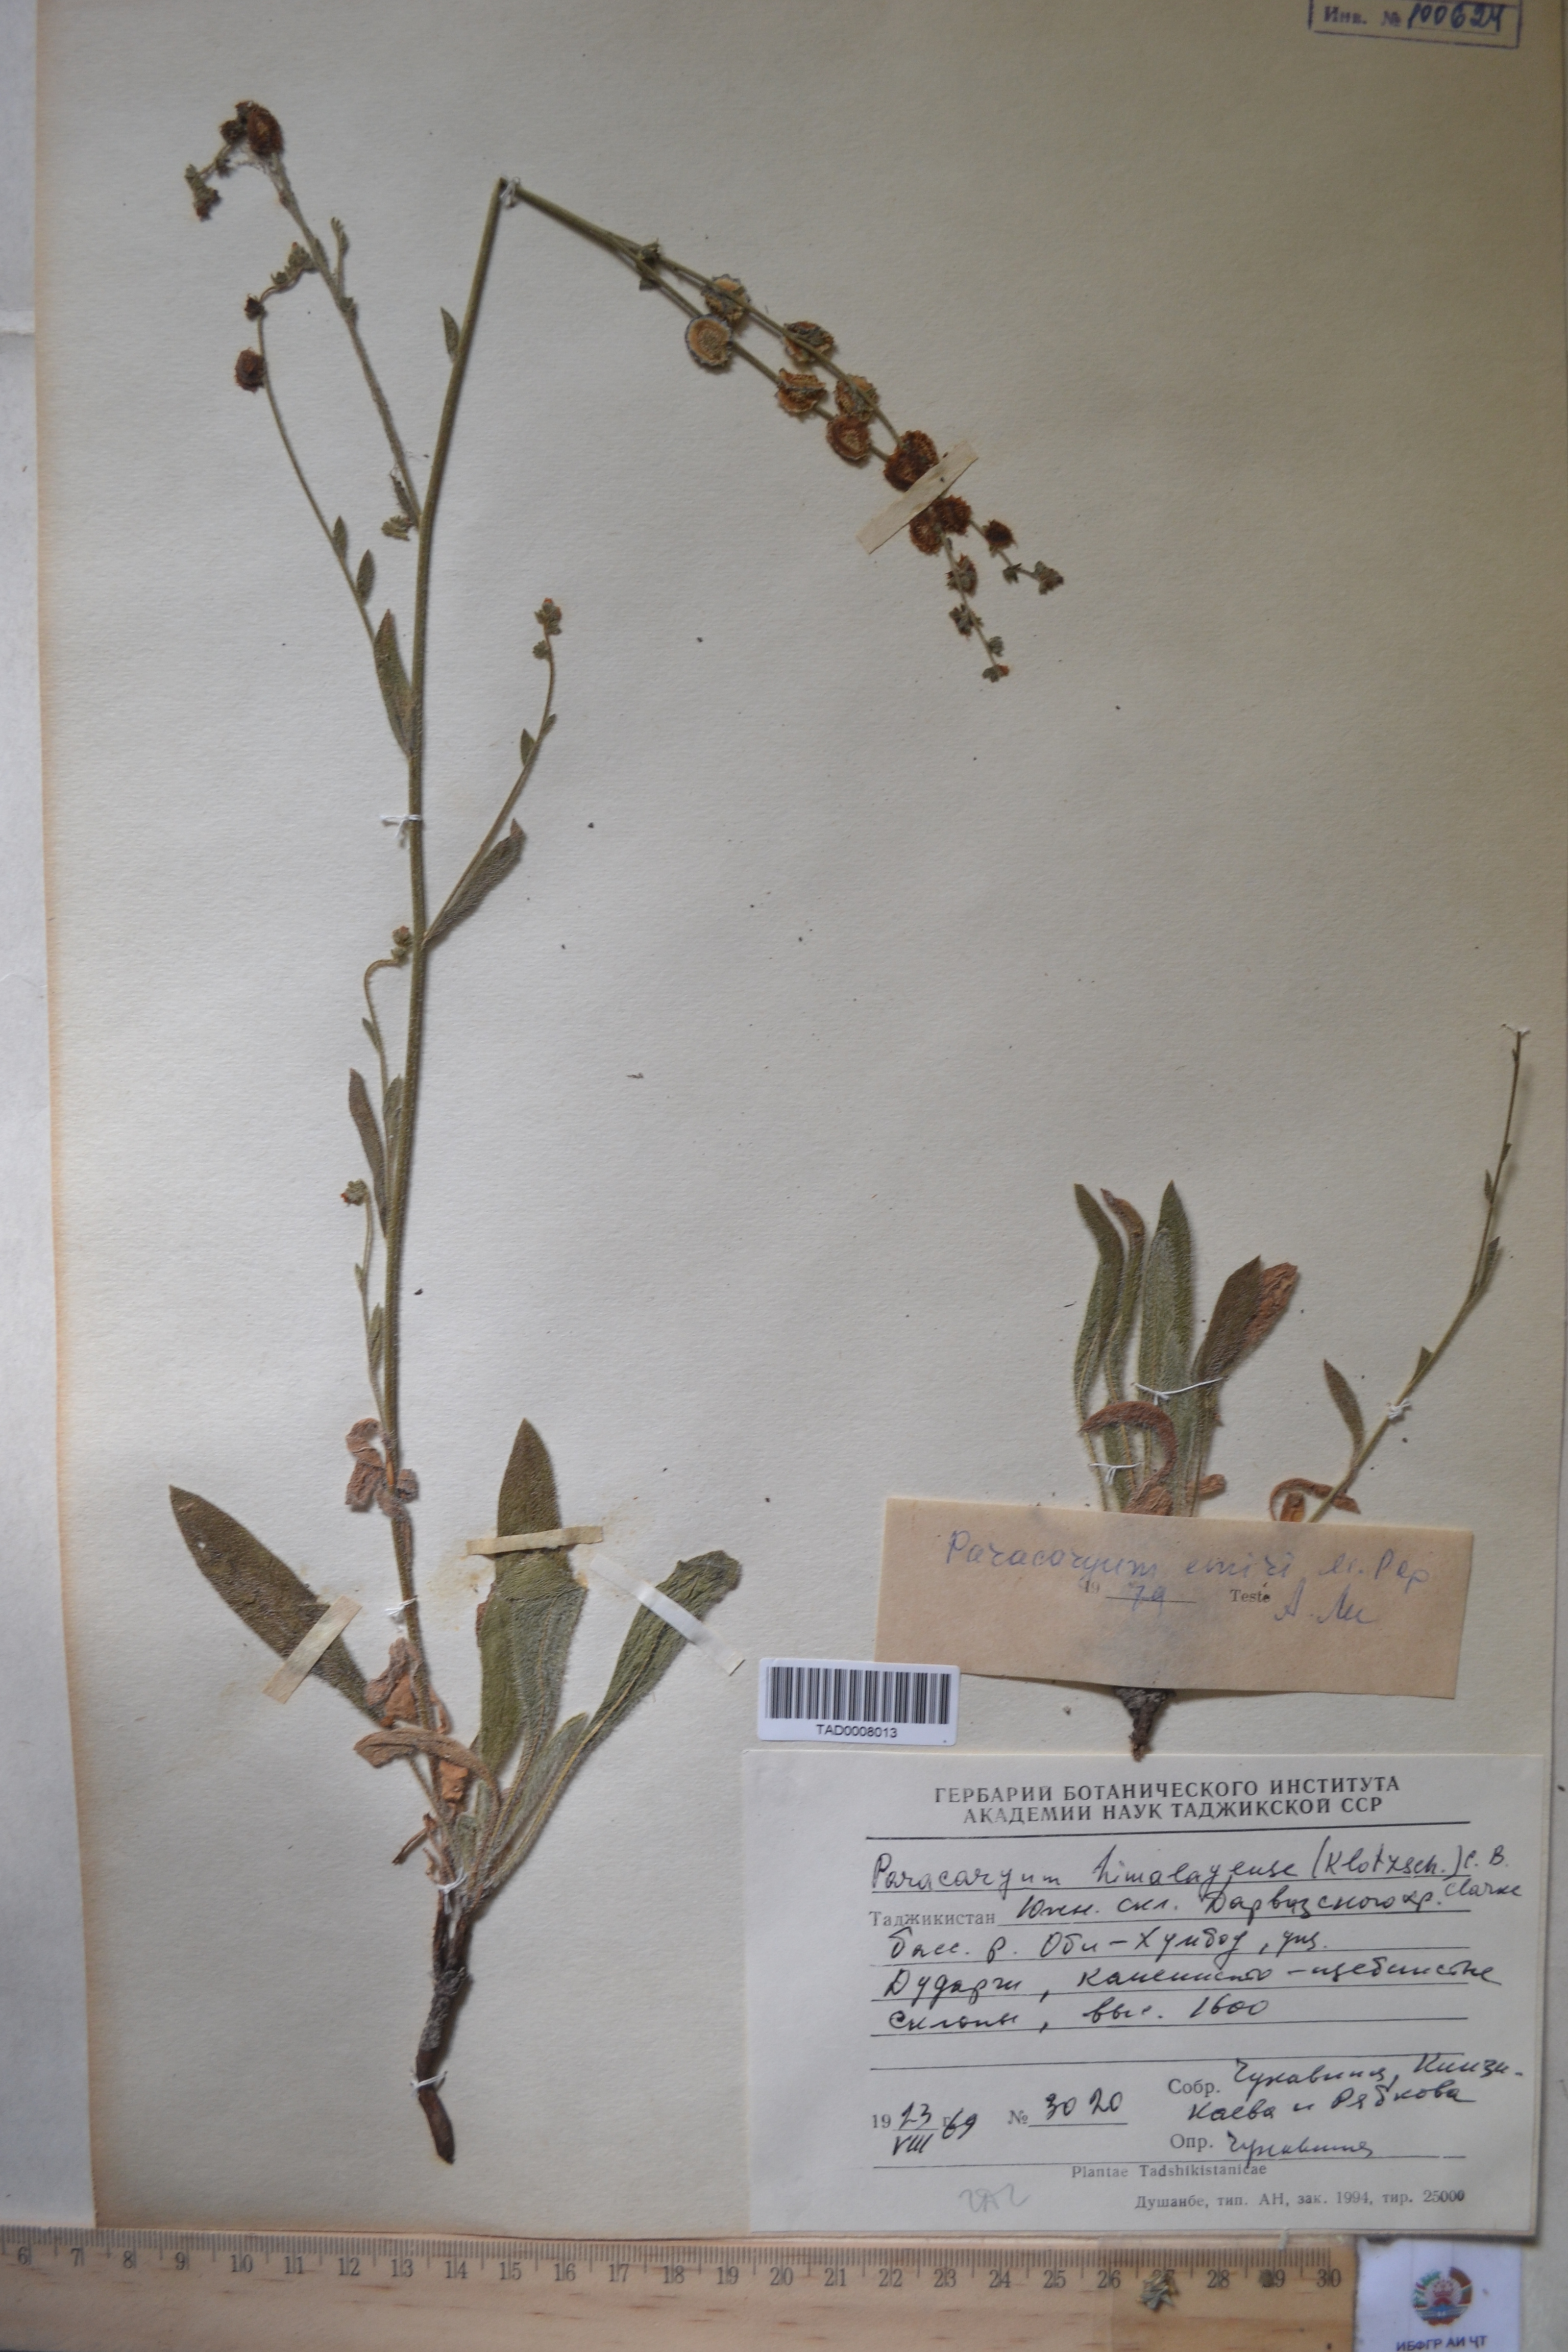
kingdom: Plantae
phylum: Tracheophyta
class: Magnoliopsida
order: Boraginales
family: Boraginaceae
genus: Paracaryum
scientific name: Paracaryum himalayense
